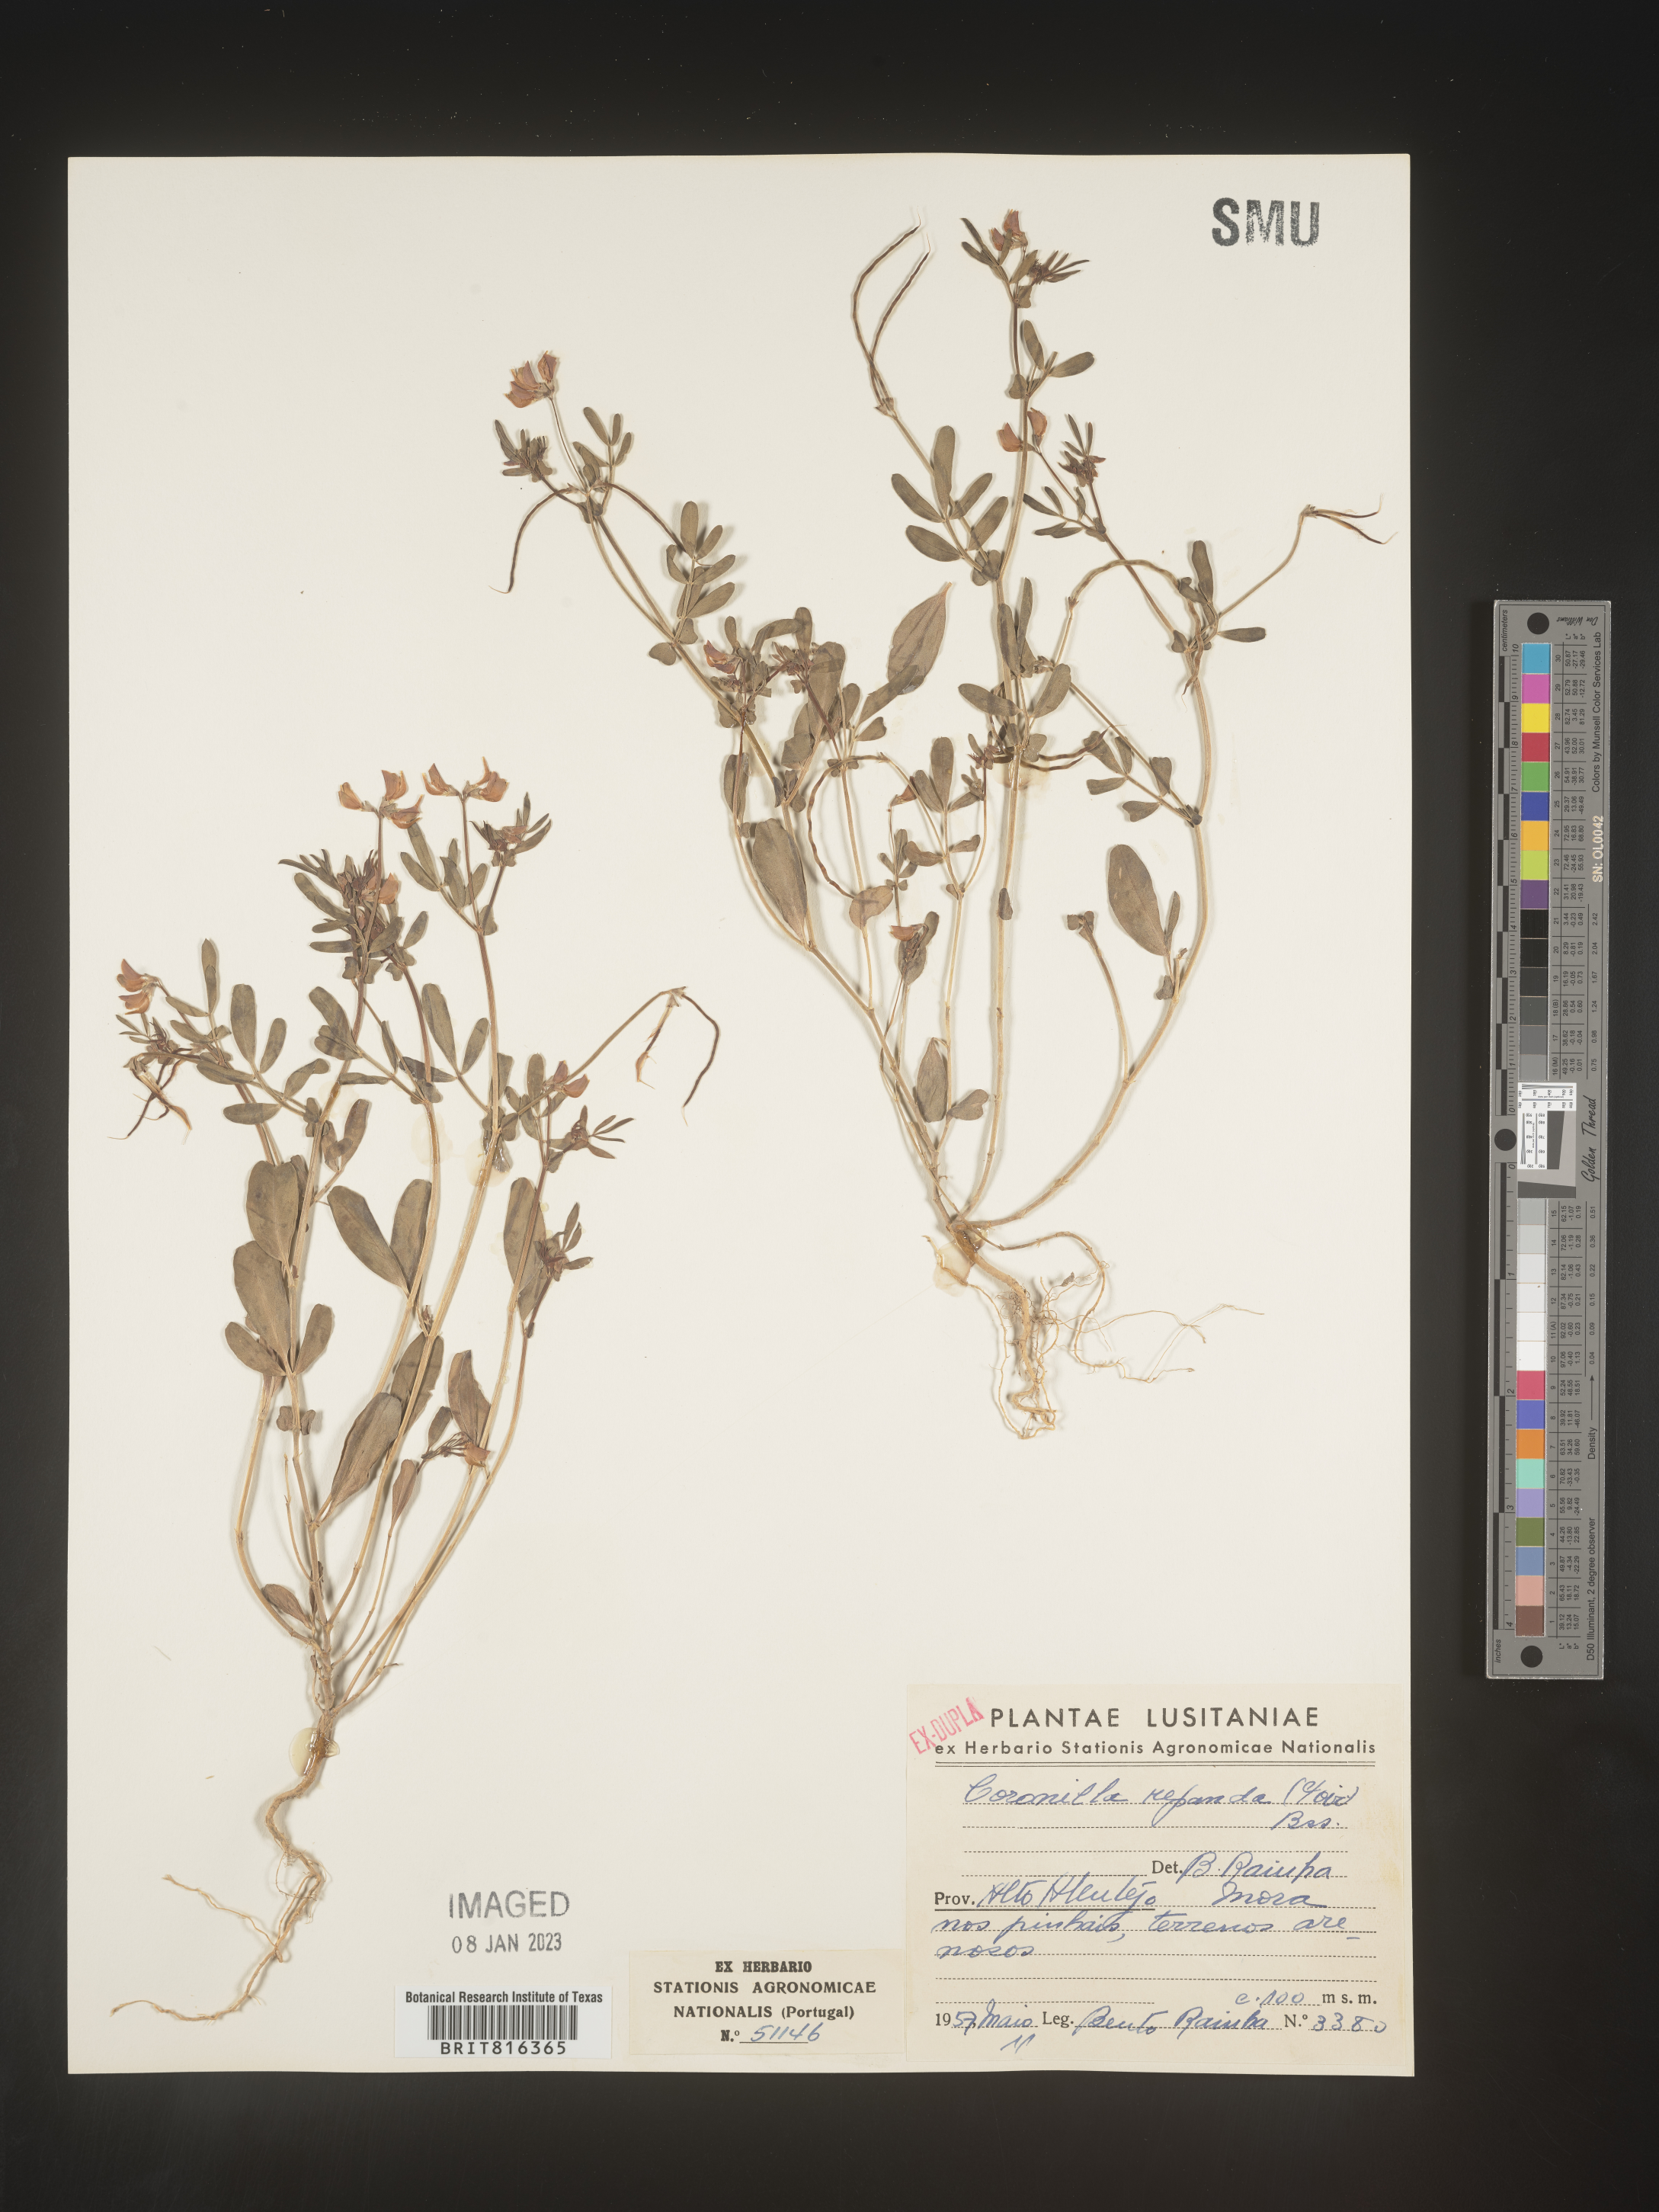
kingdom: Plantae
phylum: Tracheophyta
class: Magnoliopsida
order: Fabales
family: Fabaceae
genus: Coronilla
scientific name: Coronilla
